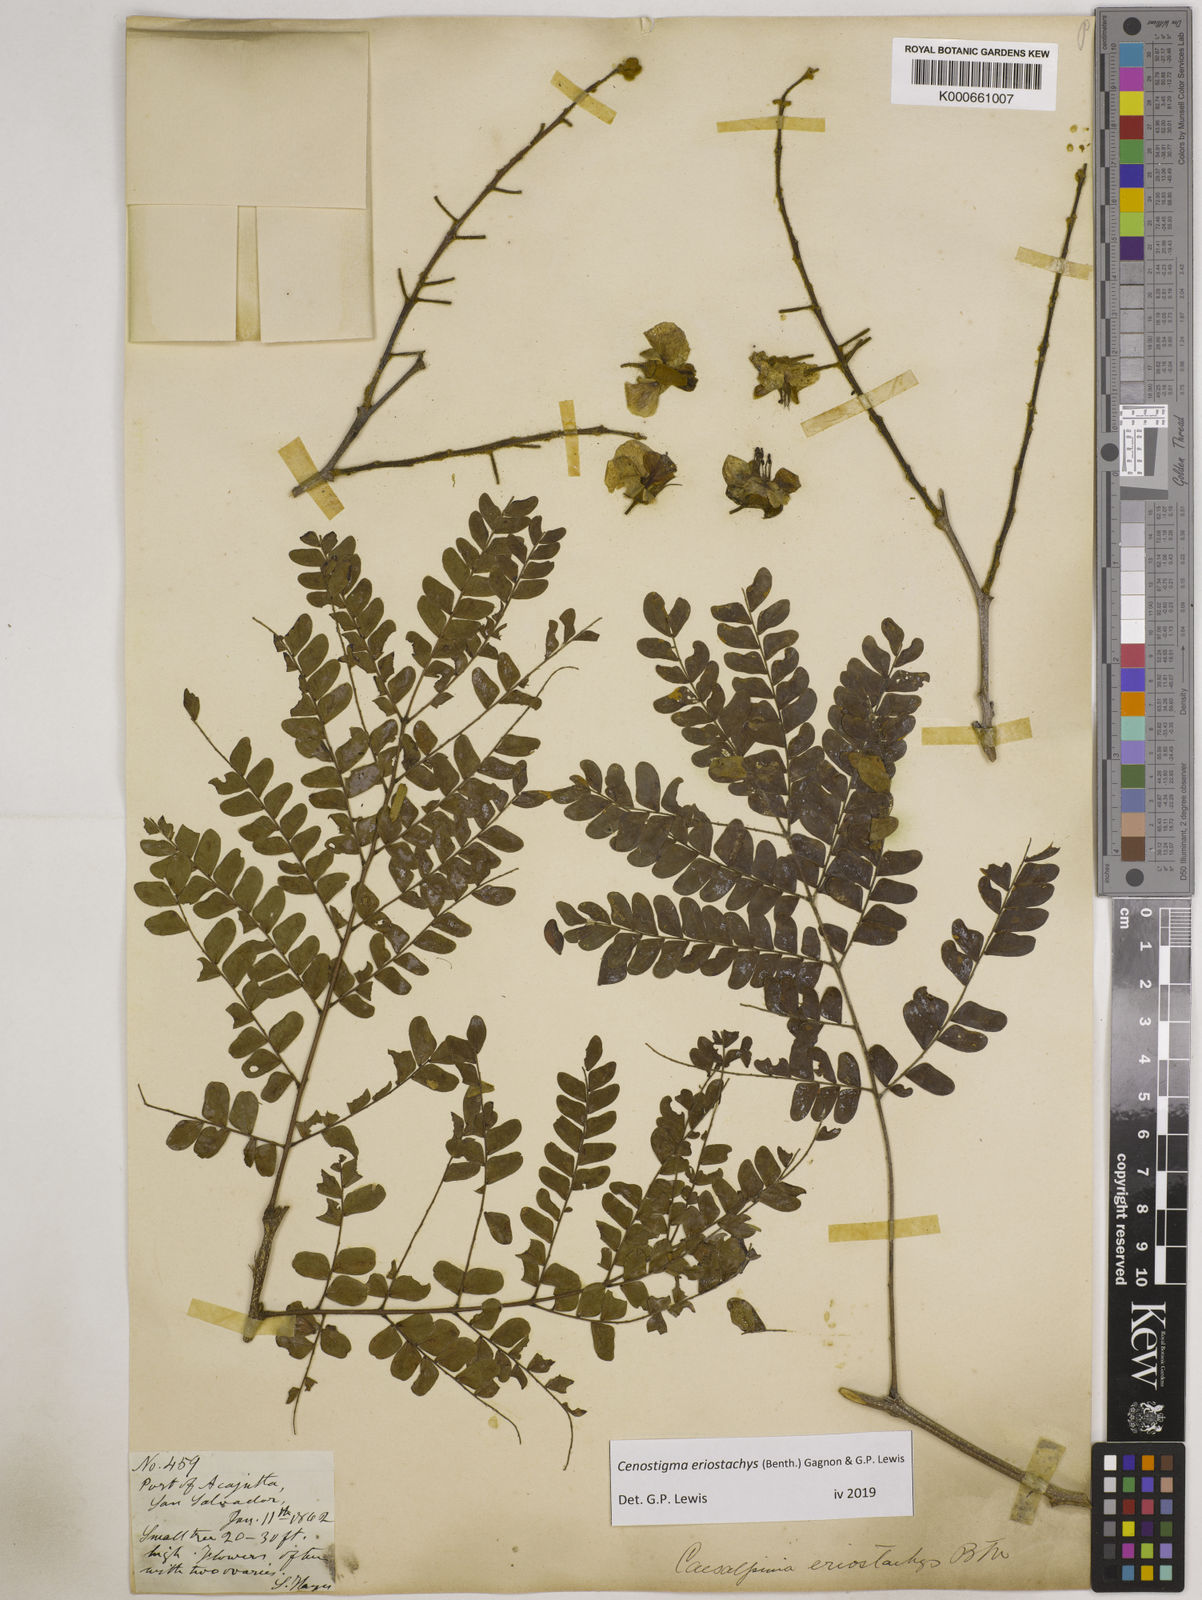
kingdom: Plantae
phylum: Tracheophyta
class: Magnoliopsida
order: Fabales
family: Fabaceae
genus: Cenostigma
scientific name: Cenostigma eriostachys
